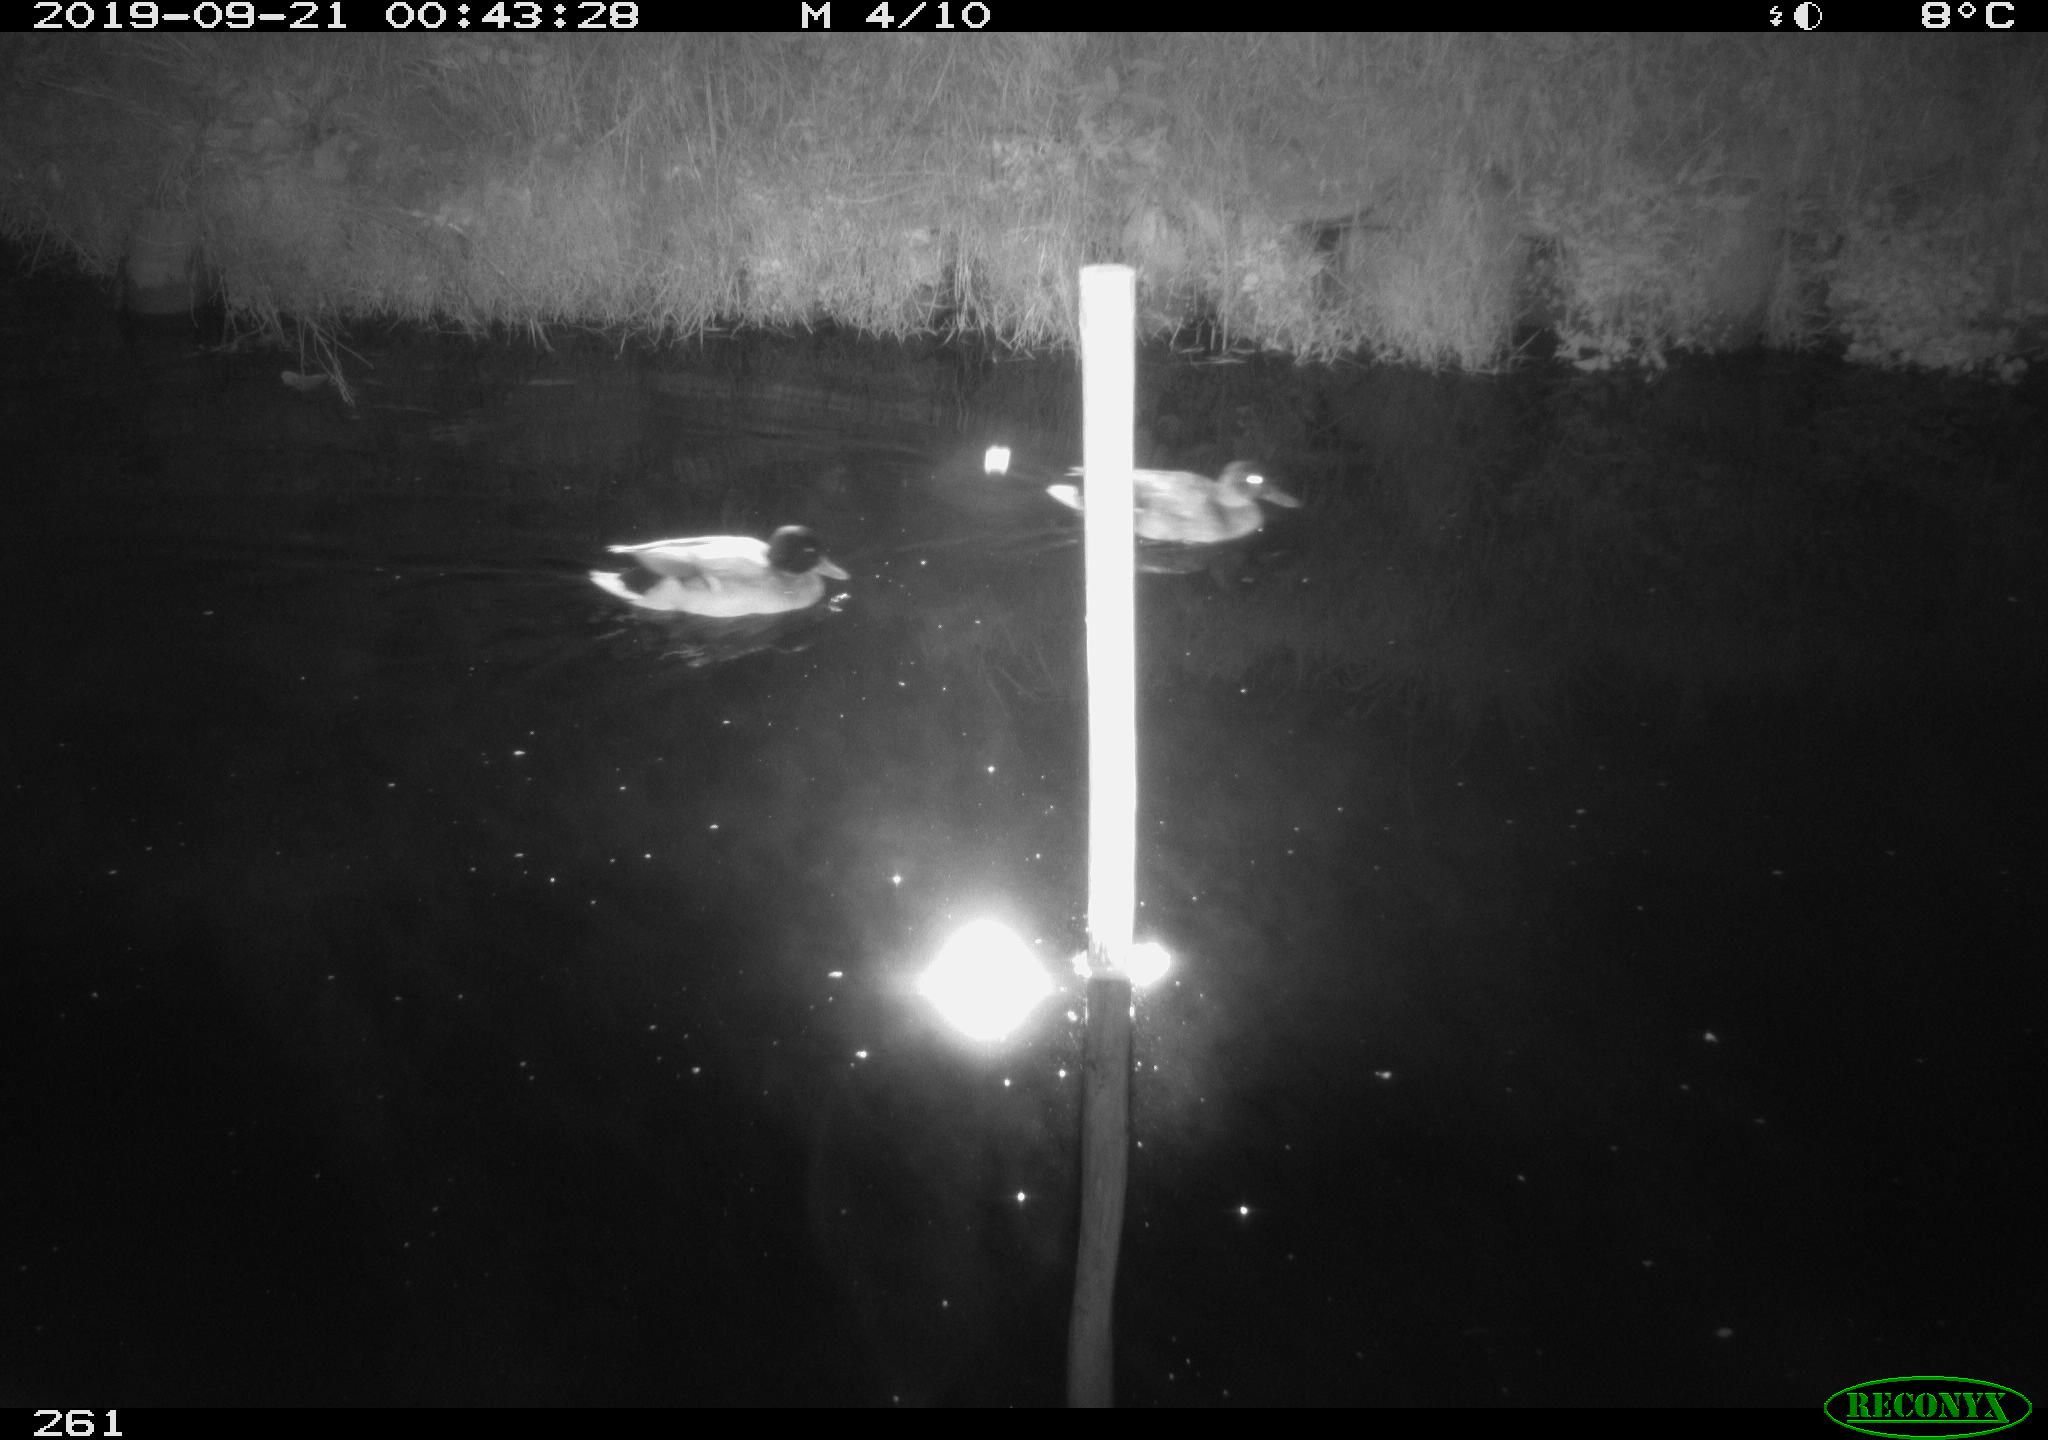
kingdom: Animalia
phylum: Chordata
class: Aves
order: Anseriformes
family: Anatidae
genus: Anas
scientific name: Anas platyrhynchos
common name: Mallard
